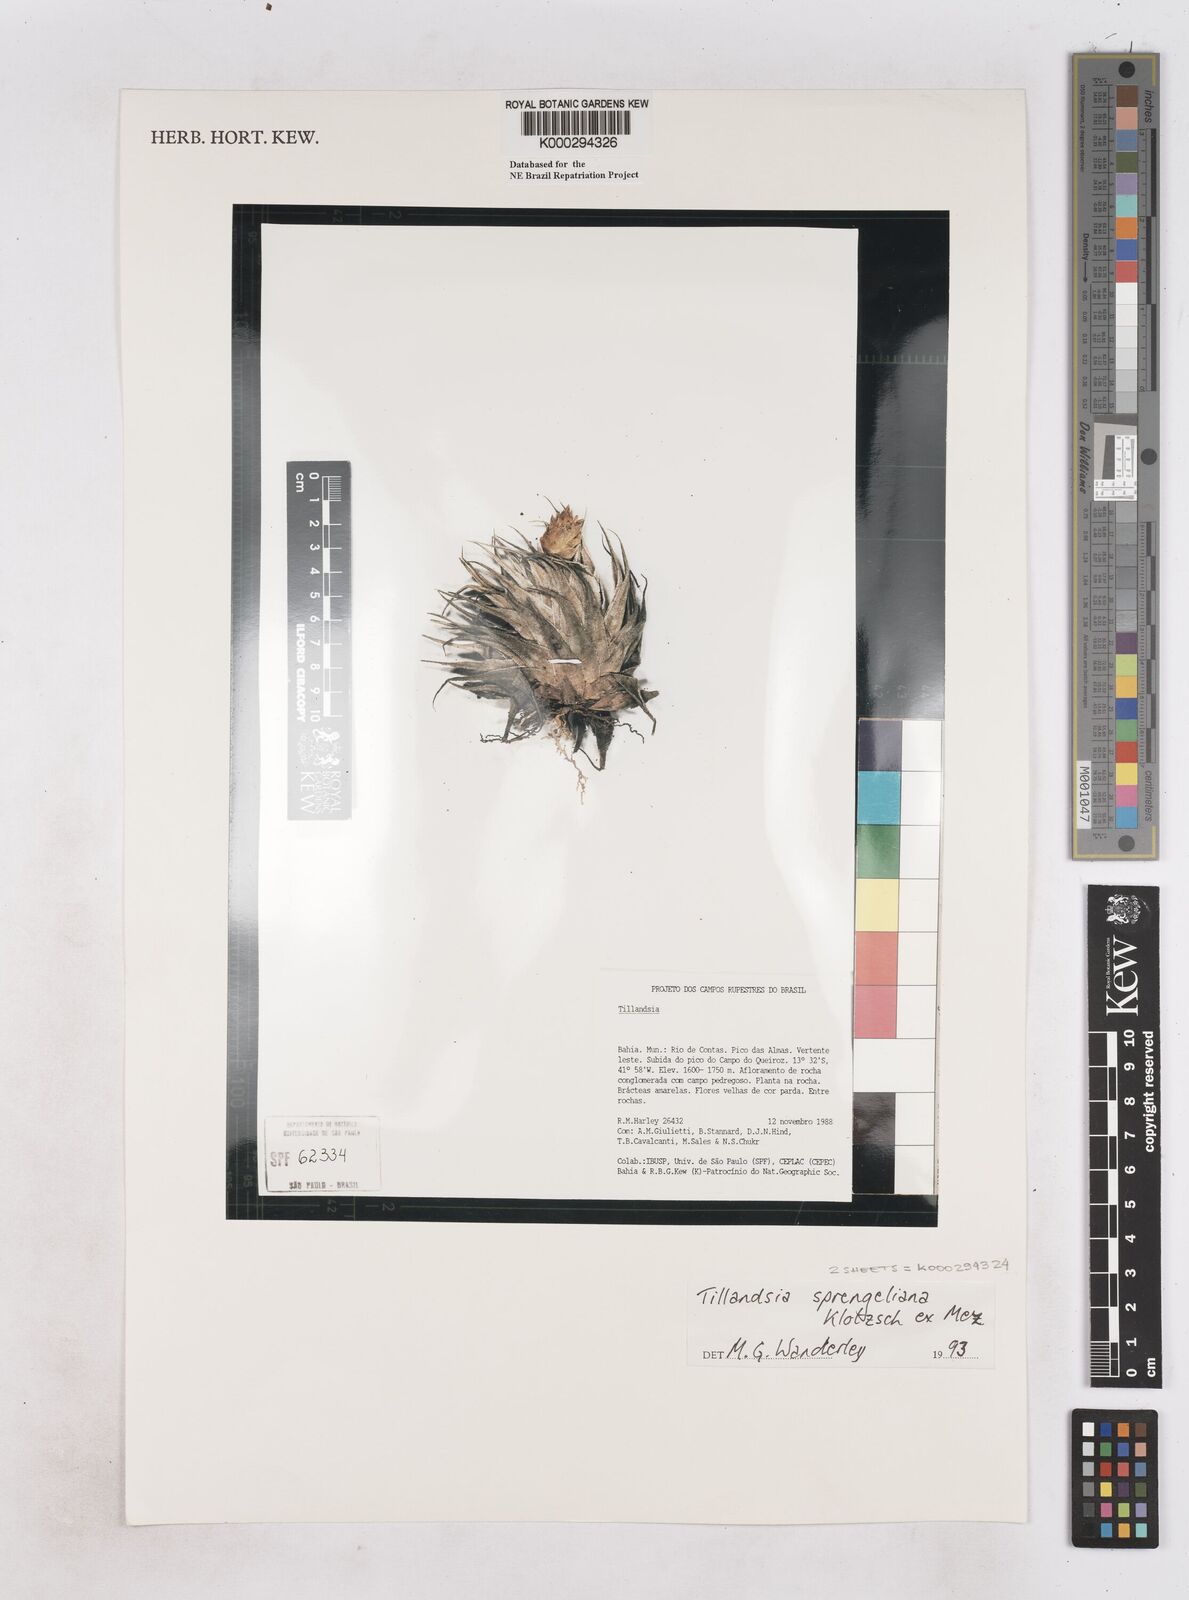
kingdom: Plantae
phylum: Tracheophyta
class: Liliopsida
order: Poales
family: Bromeliaceae
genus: Tillandsia
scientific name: Tillandsia sprengeliana
